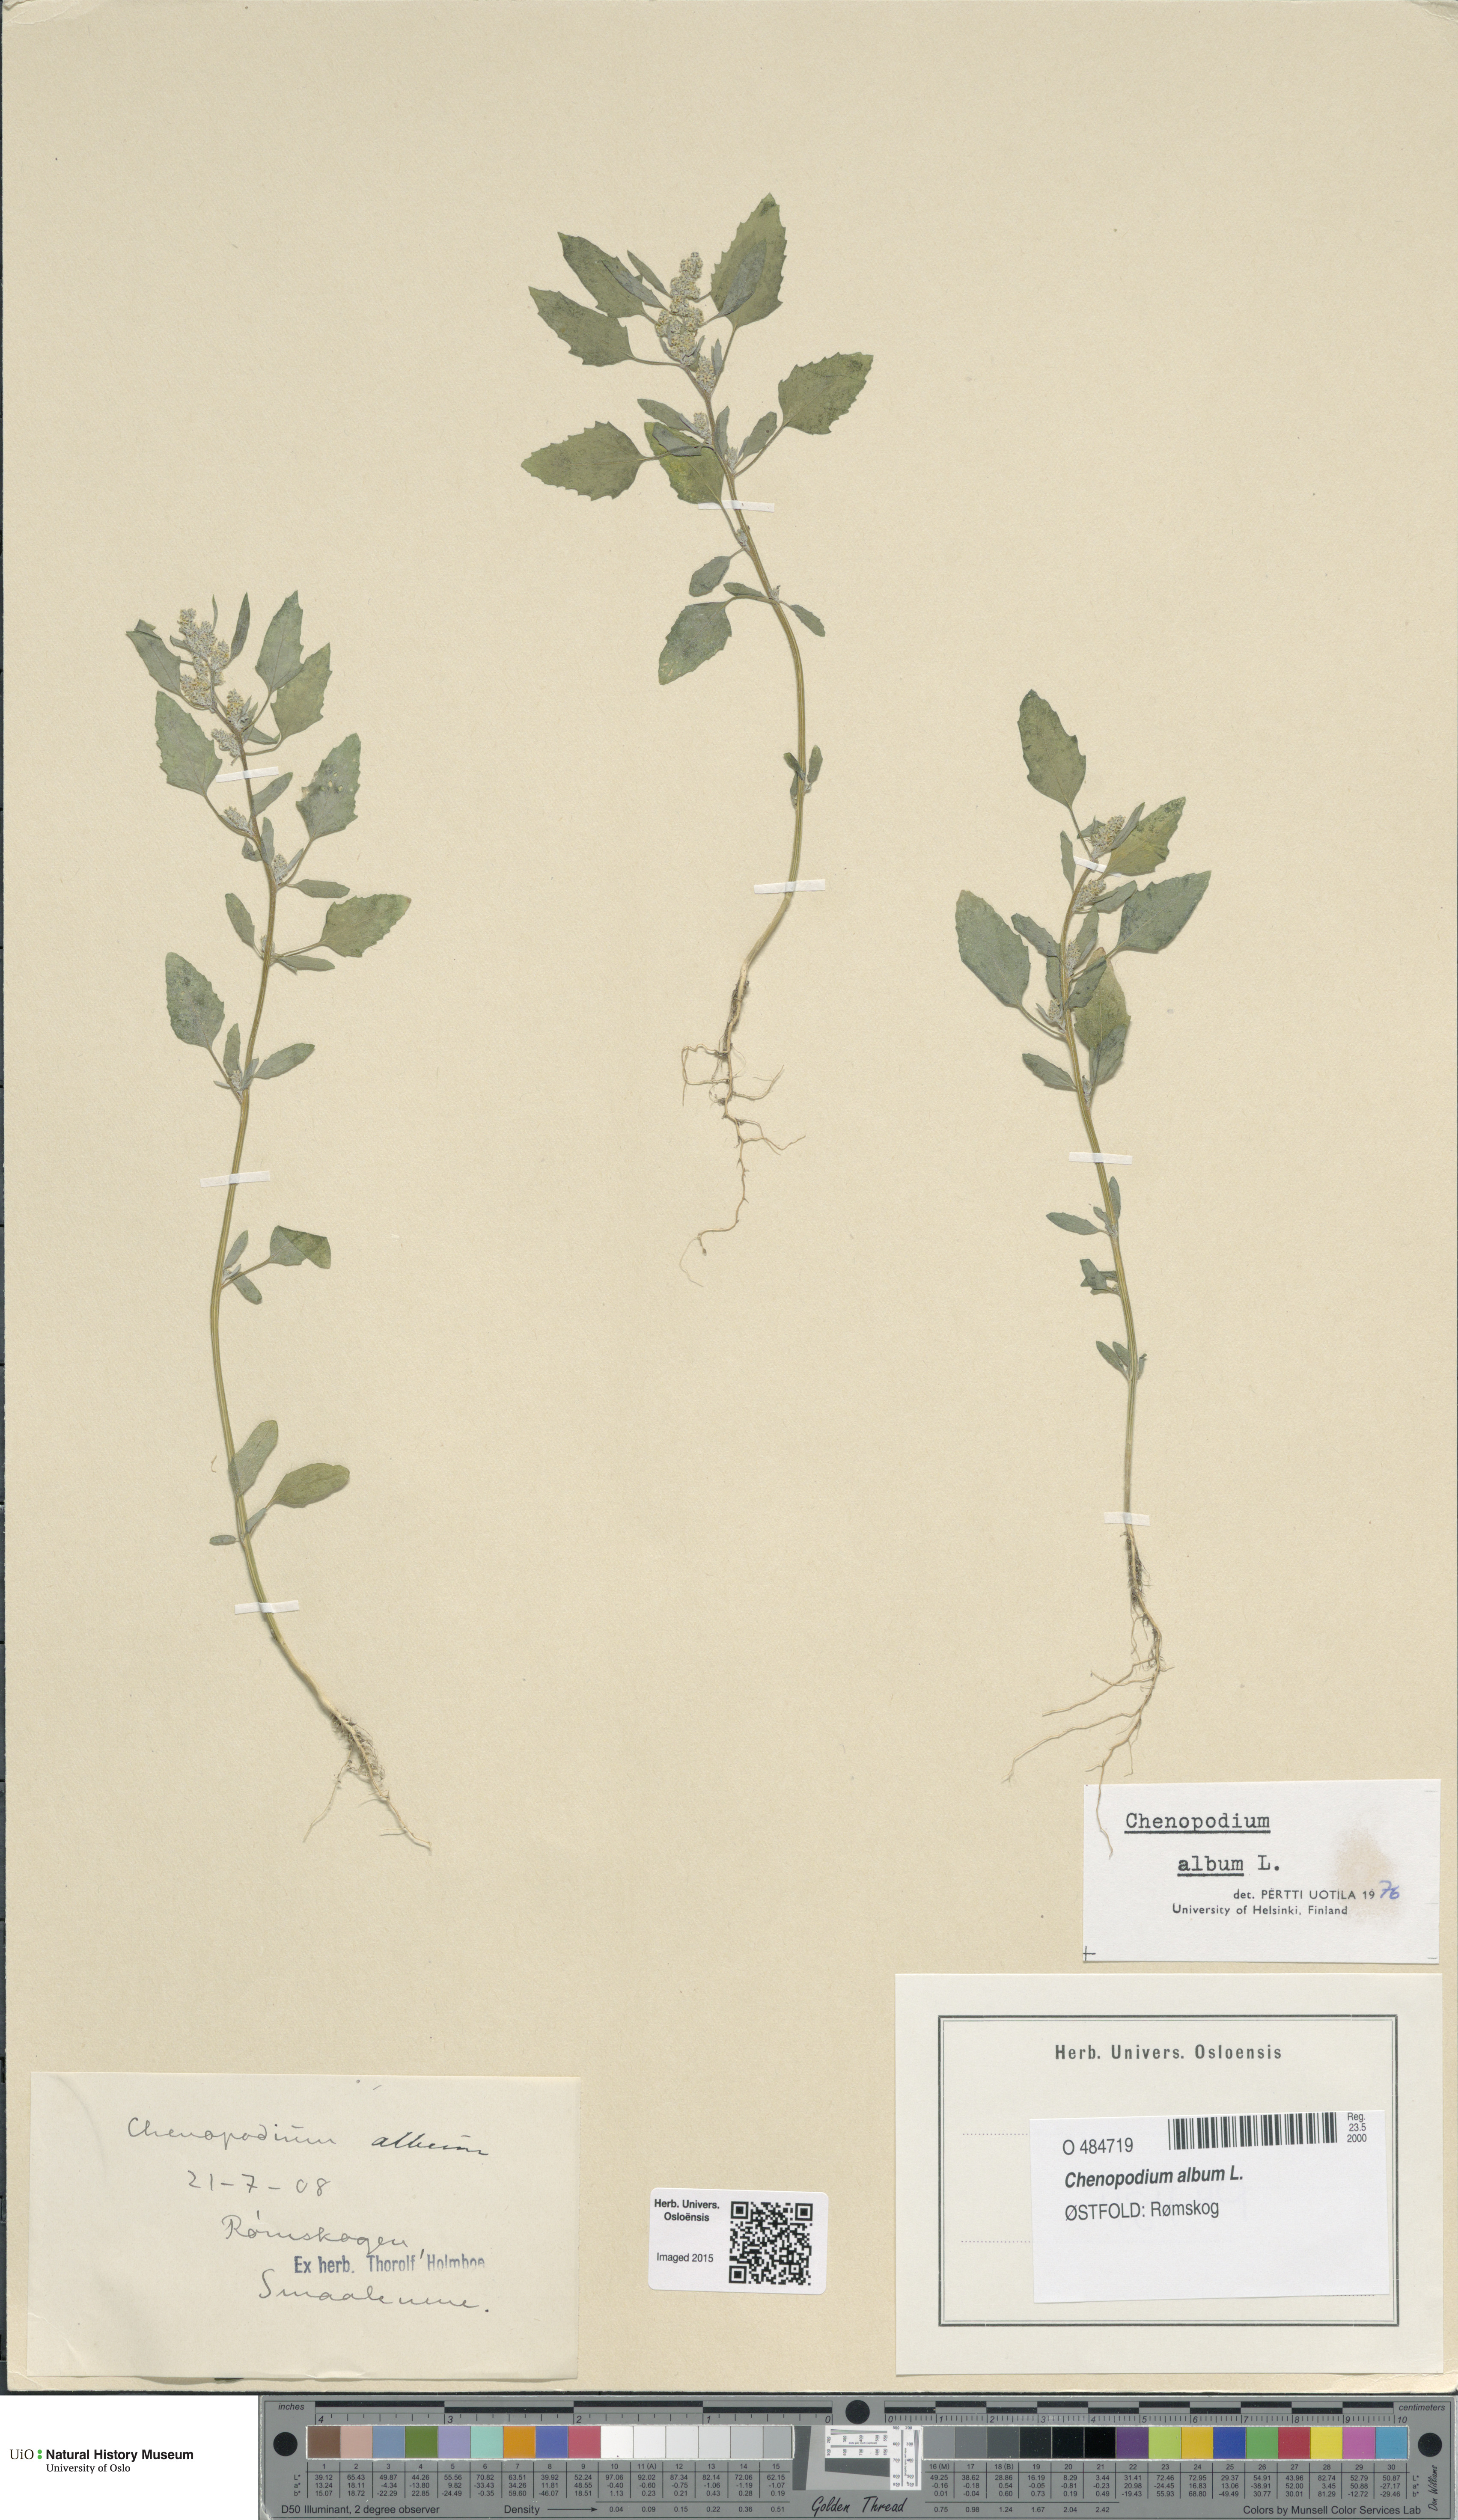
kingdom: Plantae
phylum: Tracheophyta
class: Magnoliopsida
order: Caryophyllales
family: Amaranthaceae
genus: Chenopodium
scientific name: Chenopodium album
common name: Fat-hen
